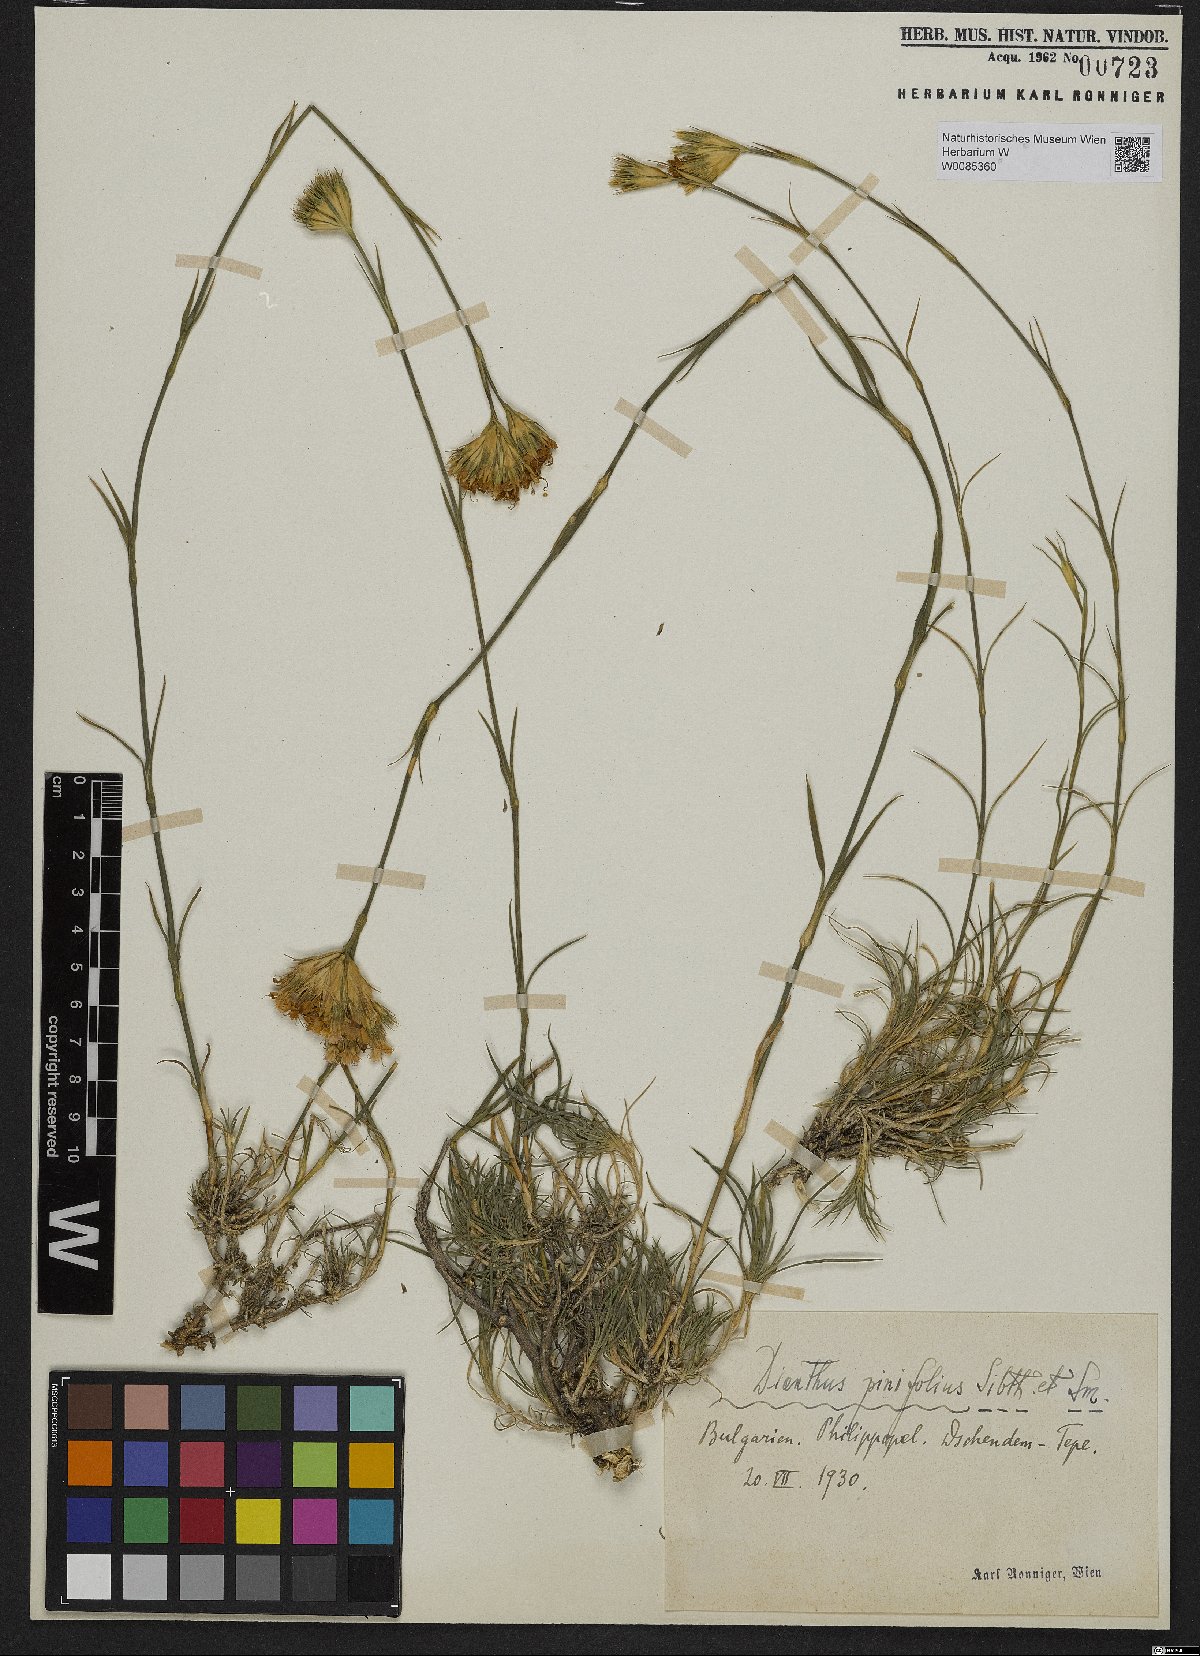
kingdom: Plantae
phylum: Tracheophyta
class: Magnoliopsida
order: Caryophyllales
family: Caryophyllaceae
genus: Dianthus
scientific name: Dianthus pinifolius
